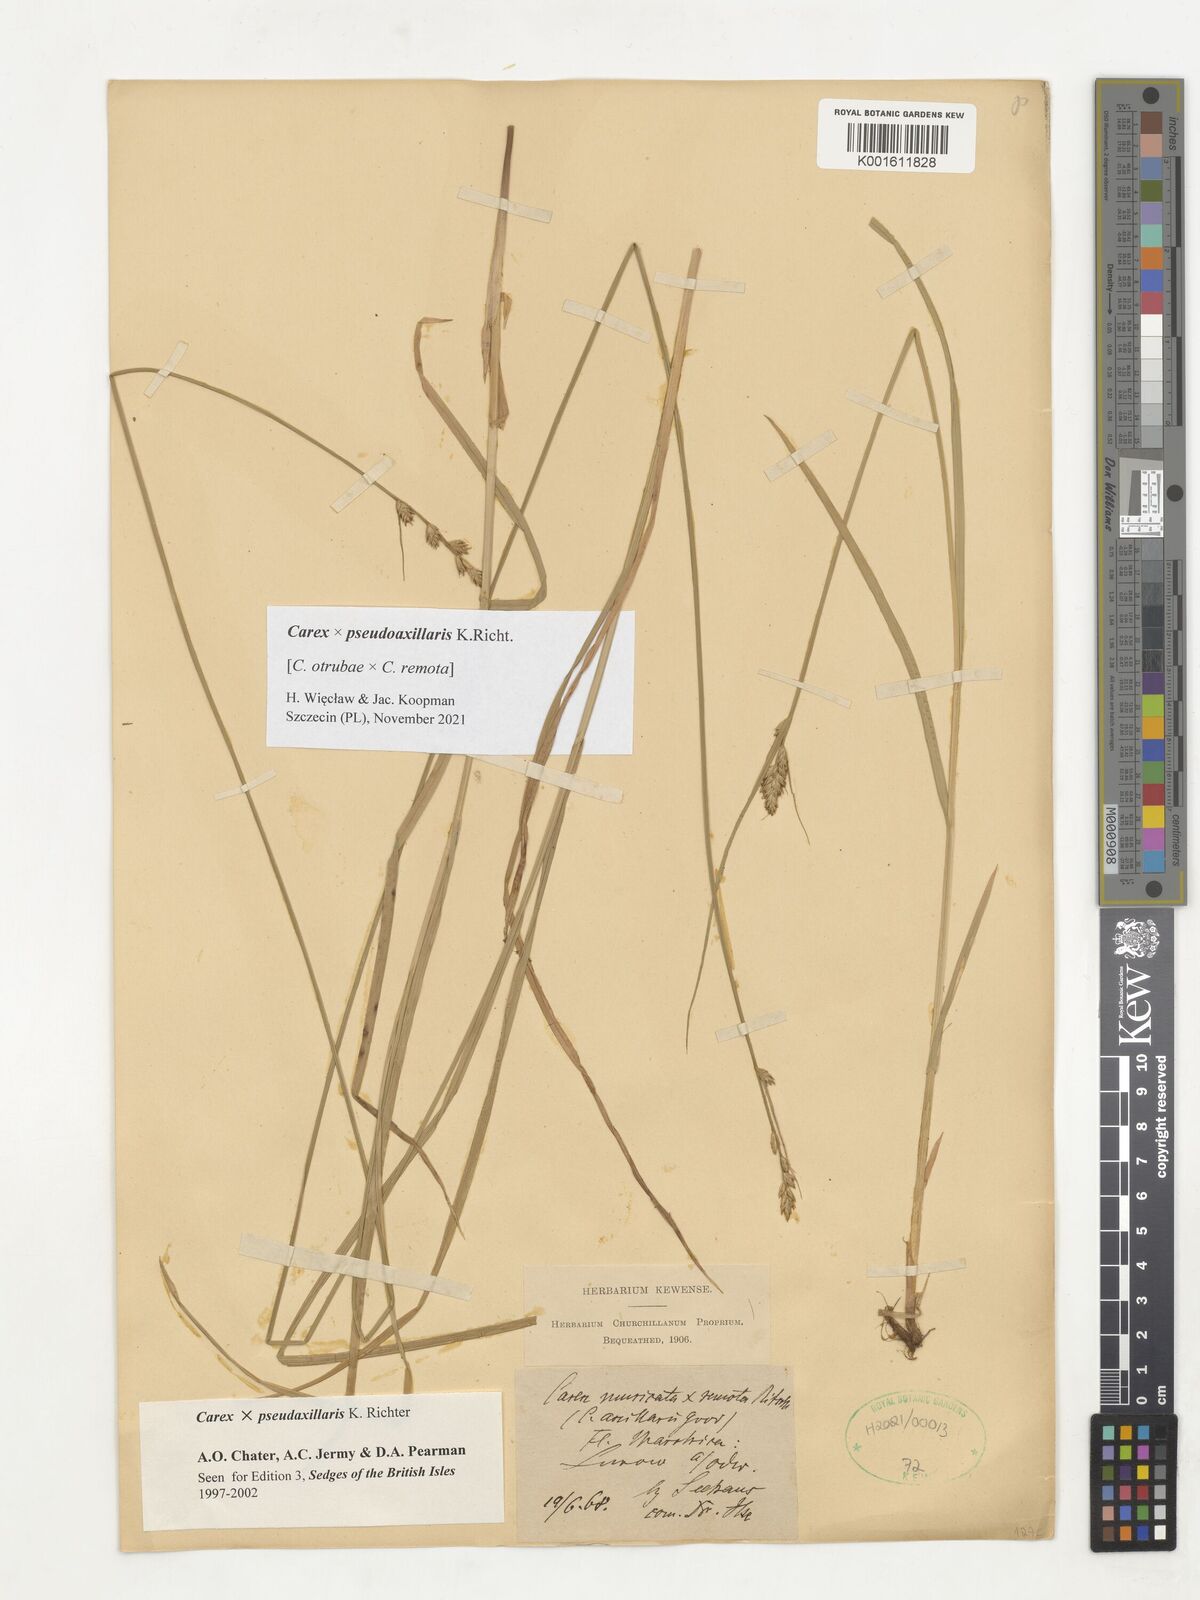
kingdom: Plantae
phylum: Tracheophyta
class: Liliopsida
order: Poales
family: Cyperaceae
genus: Carex
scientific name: Carex pseudoaxillaris
